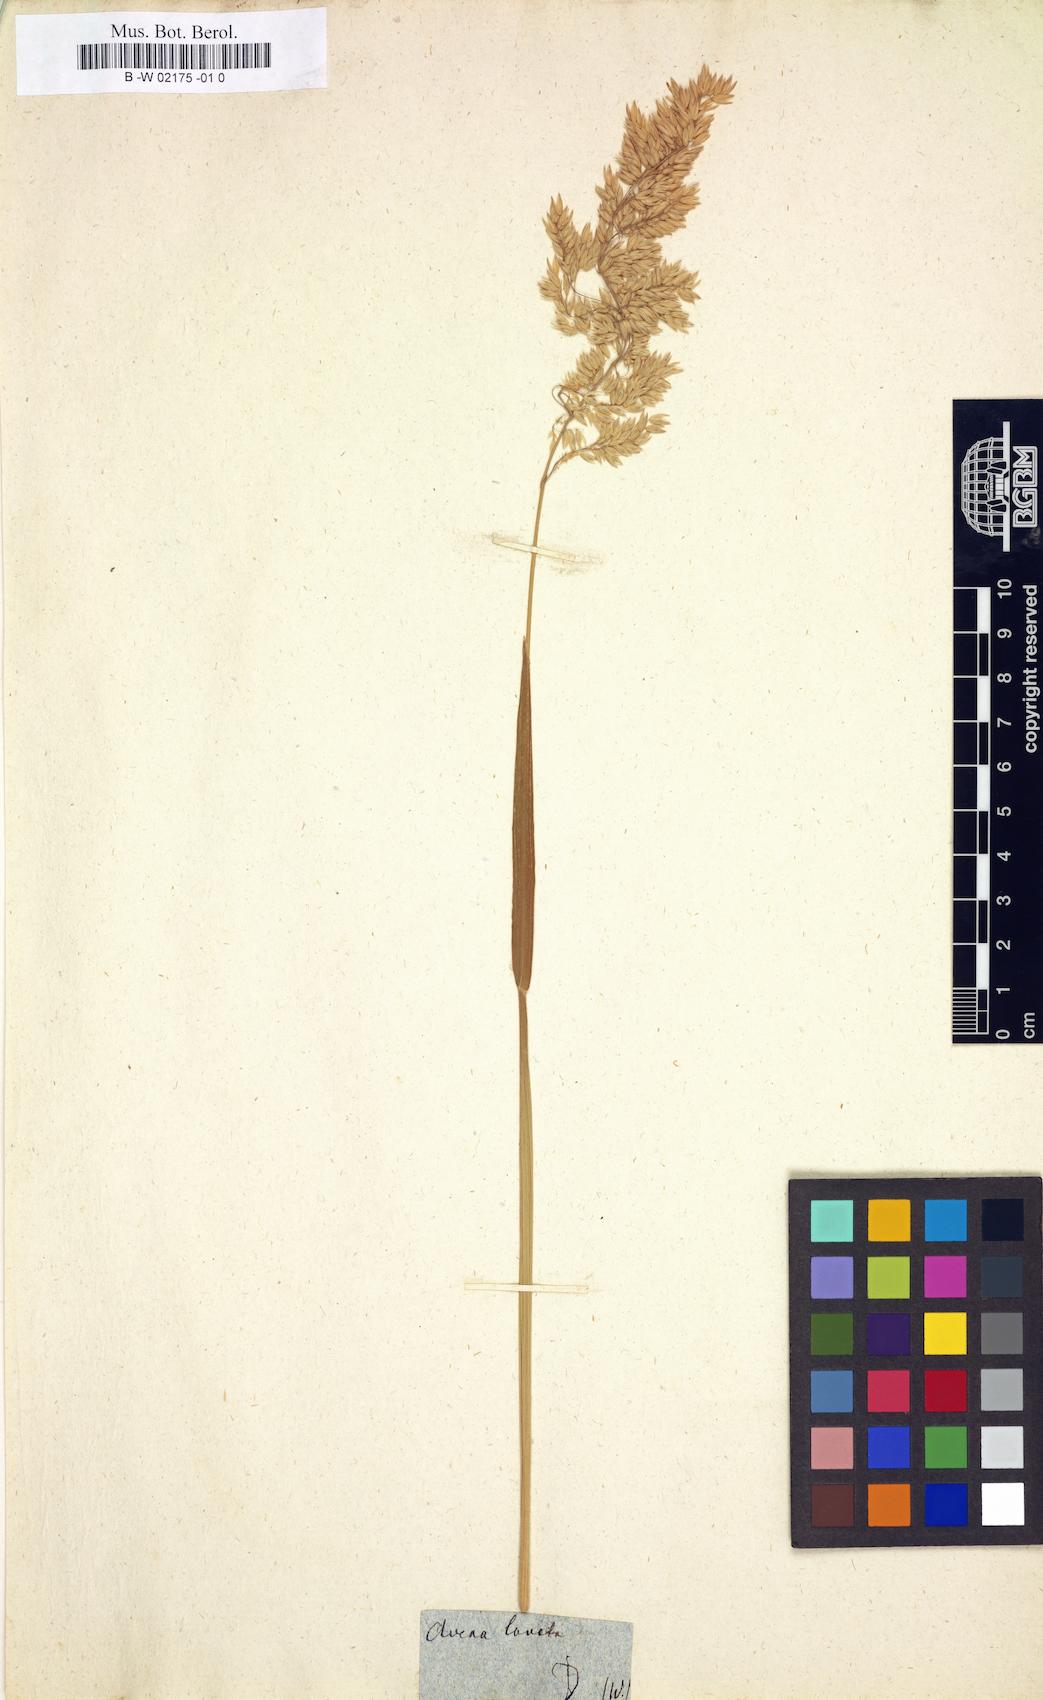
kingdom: Plantae
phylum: Tracheophyta
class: Liliopsida
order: Poales
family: Poaceae
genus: Holcus
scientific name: Holcus lanatus
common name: Yorkshire-fog
